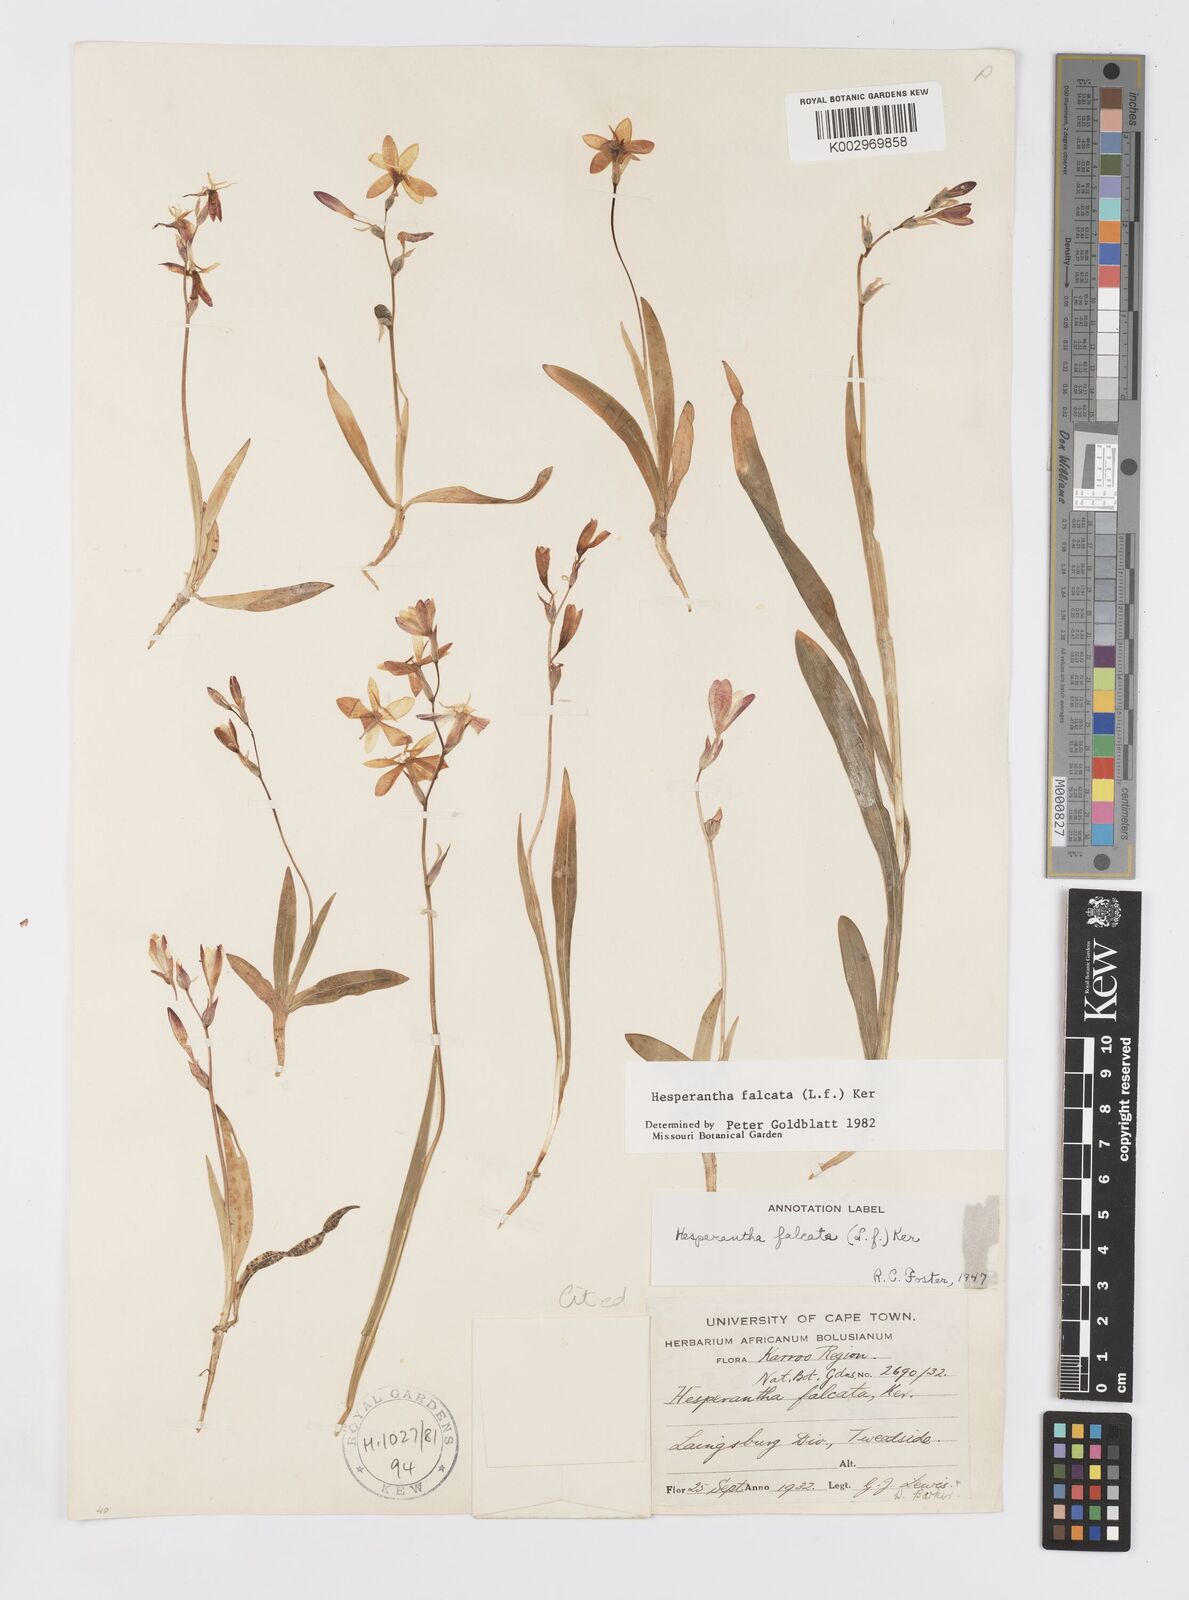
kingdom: Plantae
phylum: Tracheophyta
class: Liliopsida
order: Asparagales
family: Iridaceae
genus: Hesperantha
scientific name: Hesperantha falcata
